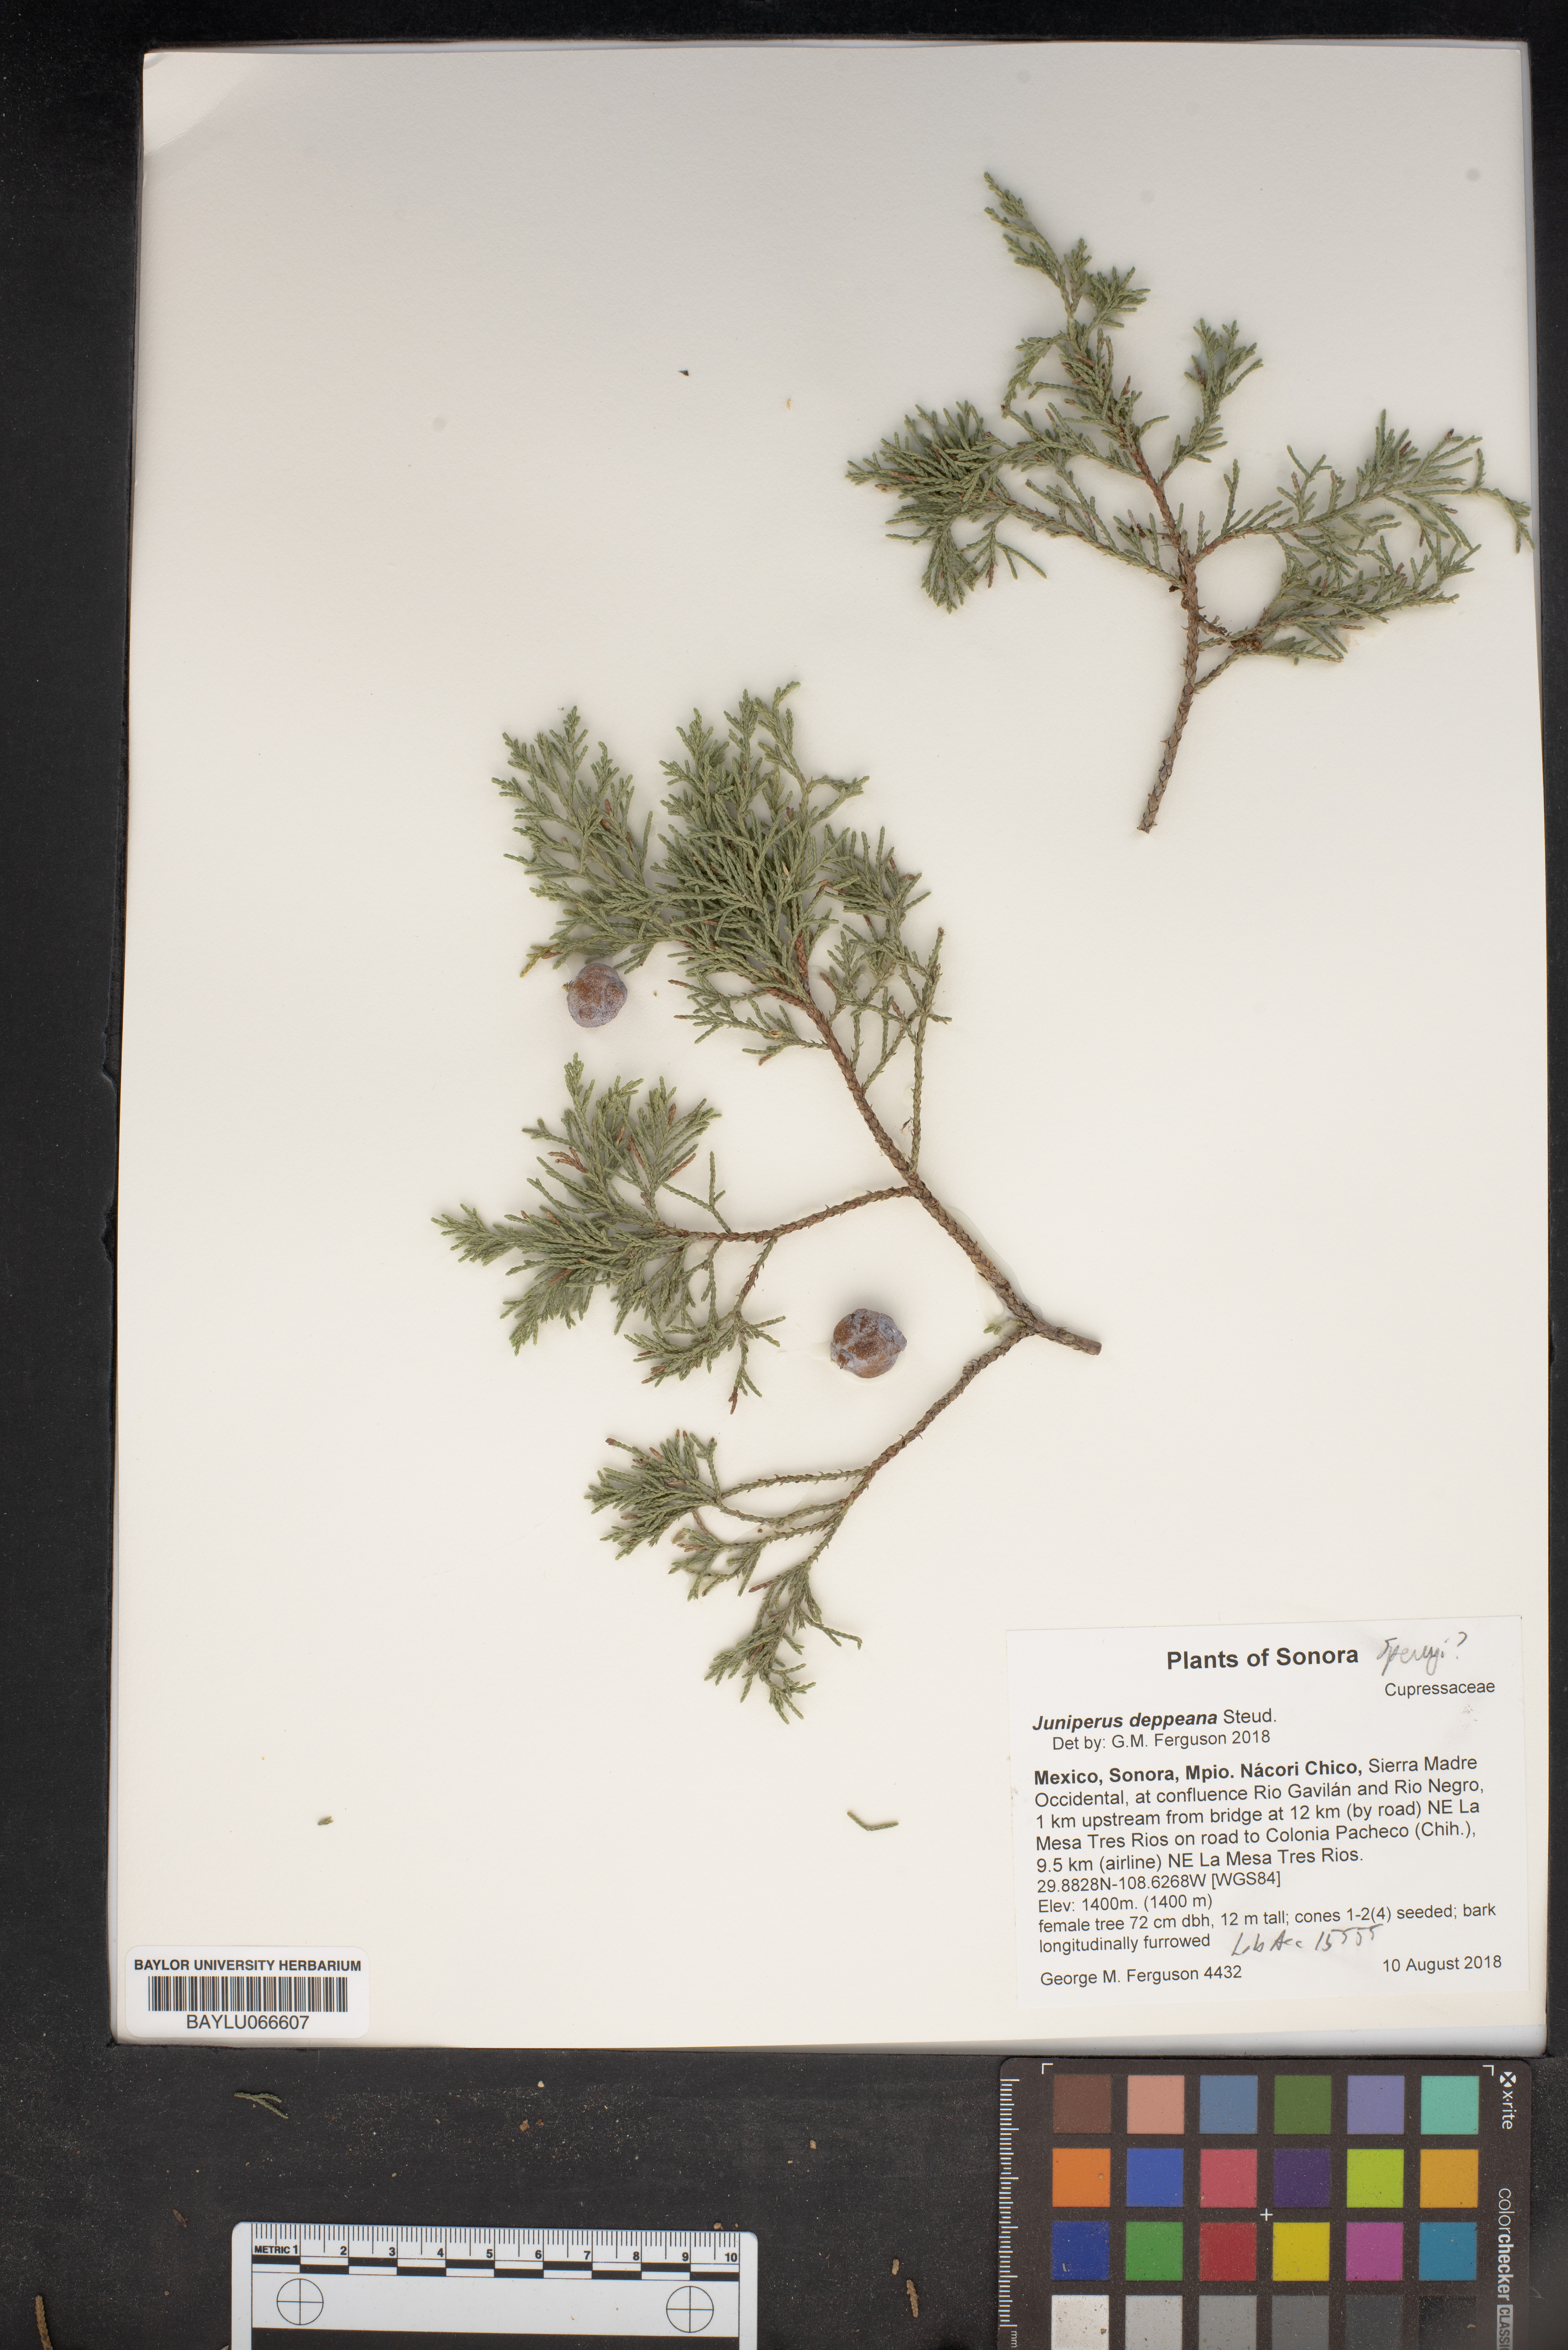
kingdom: Plantae
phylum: Tracheophyta
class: Pinopsida
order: Pinales
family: Cupressaceae
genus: Juniperus
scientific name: Juniperus deppeana
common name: Alligator juniper
